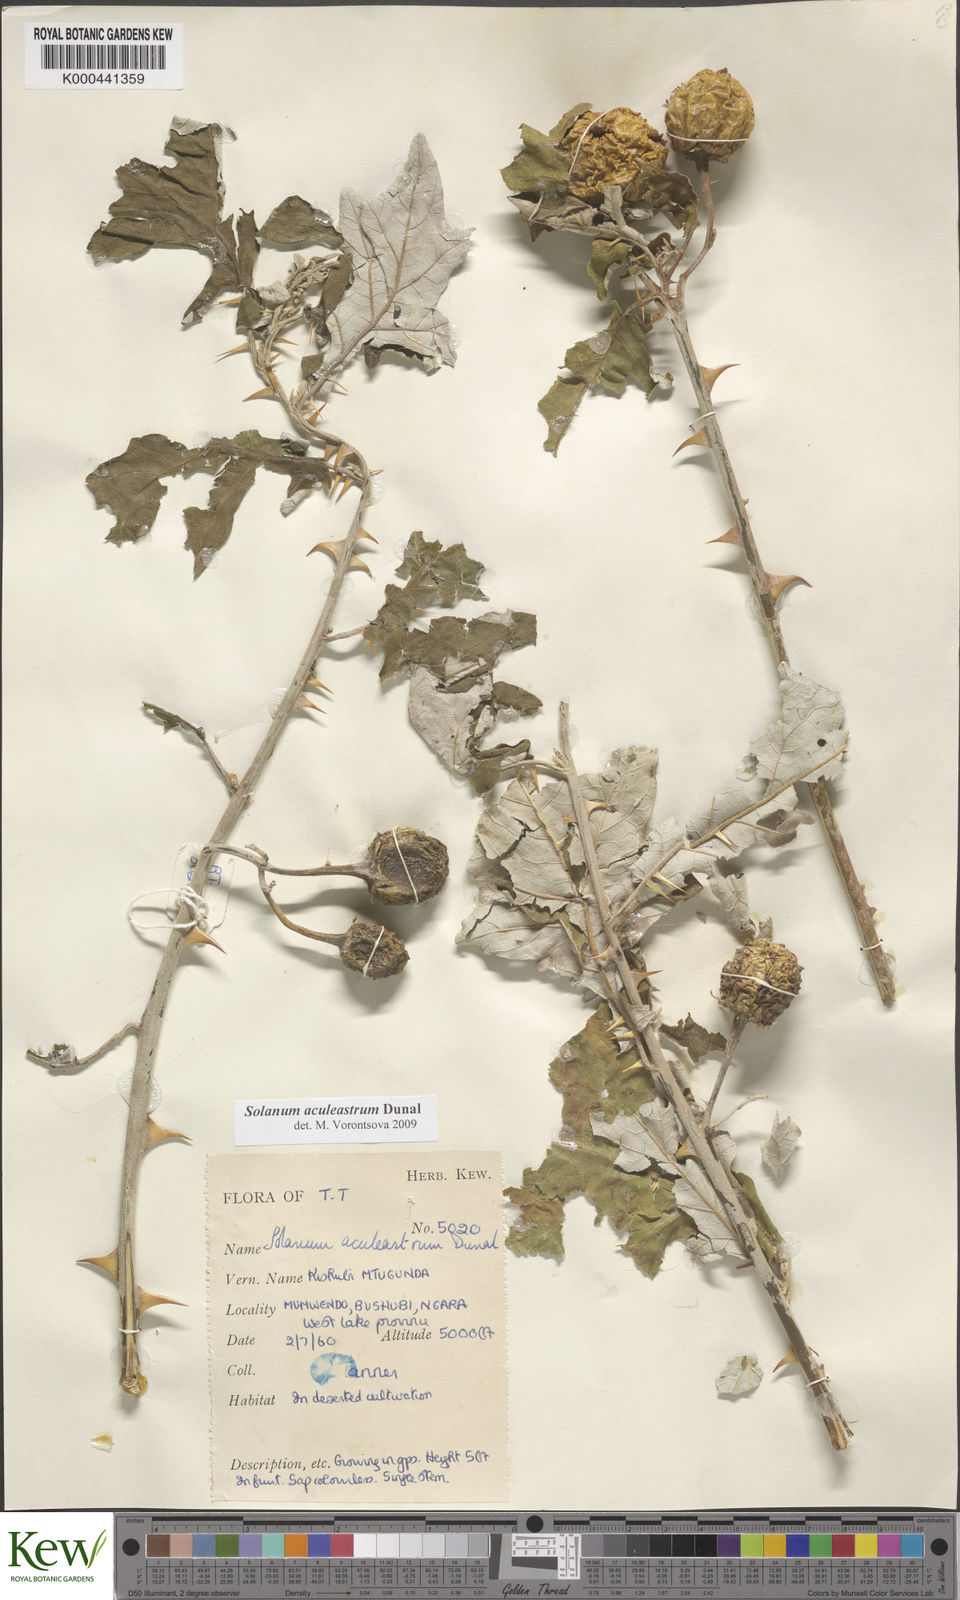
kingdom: Plantae
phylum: Tracheophyta
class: Magnoliopsida
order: Solanales
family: Solanaceae
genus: Solanum
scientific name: Solanum aculeastrum
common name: Goat bitter-apple
